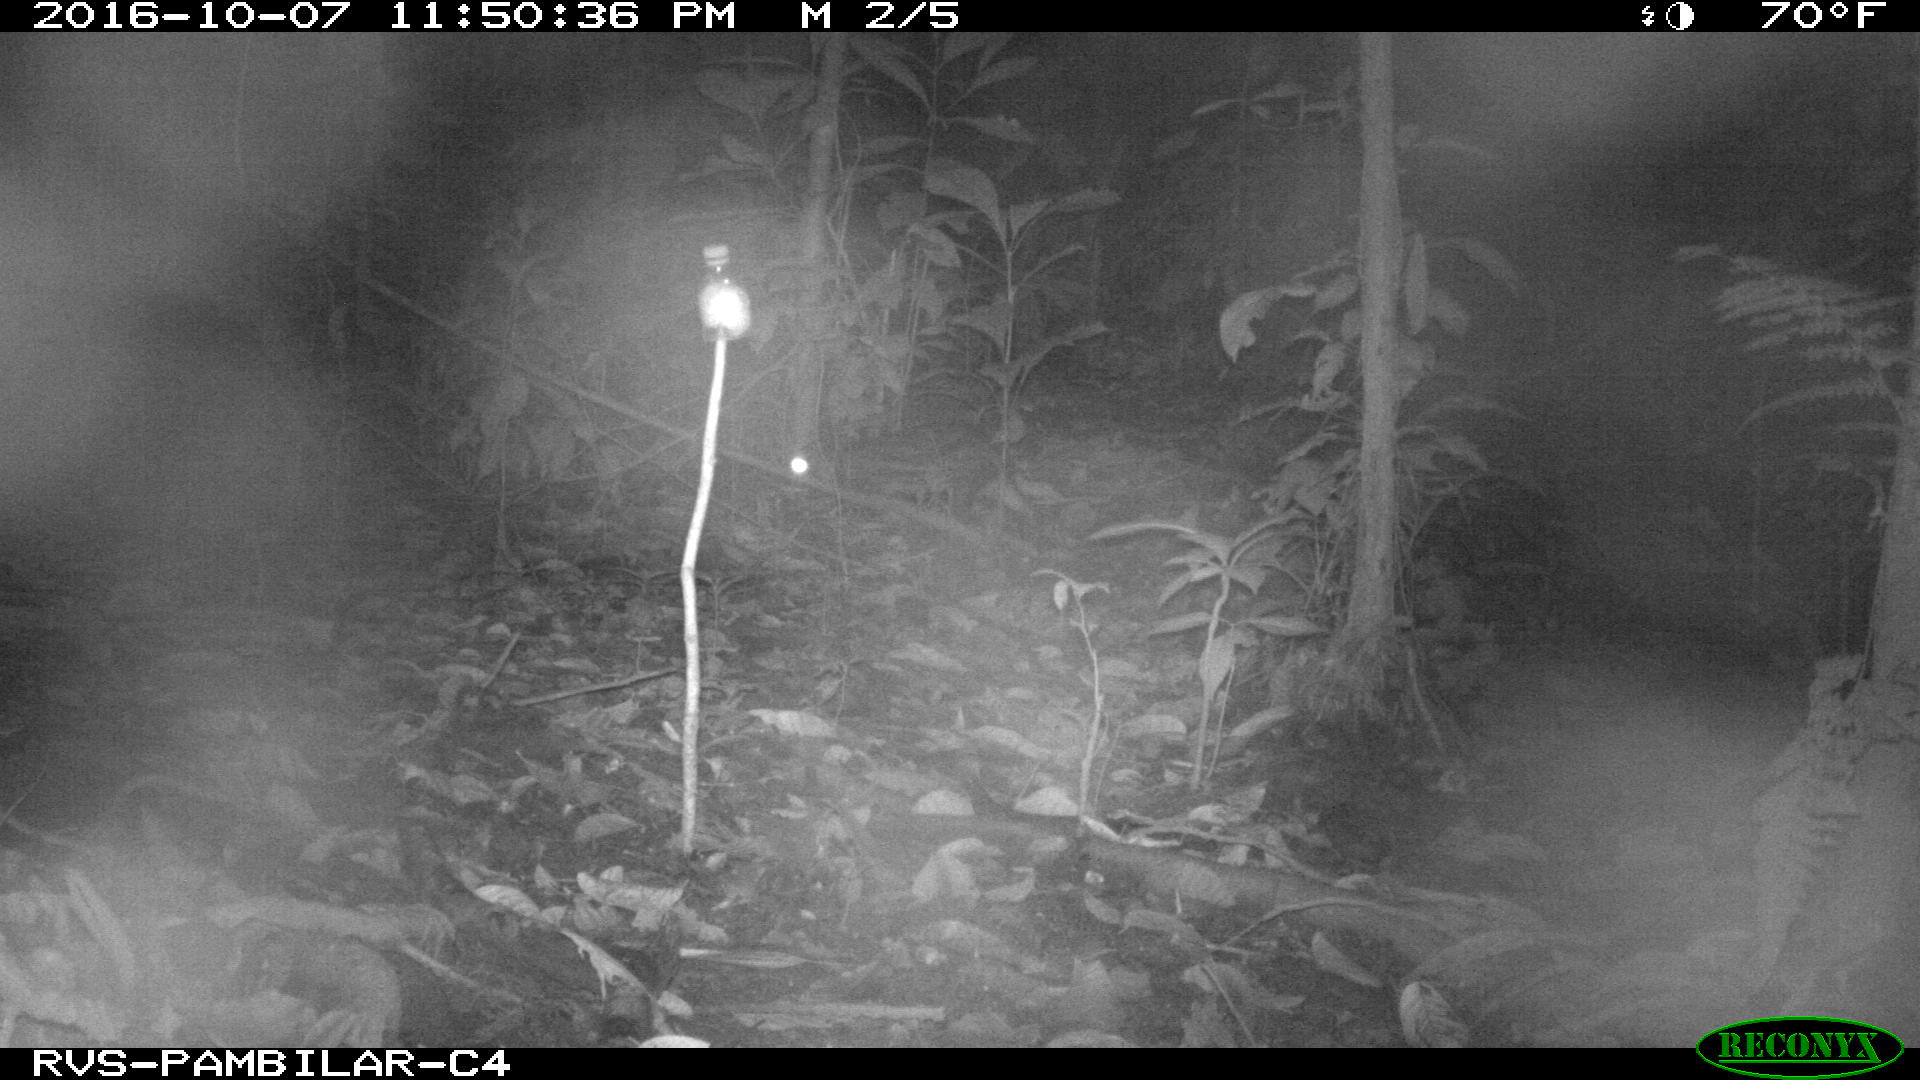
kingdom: Animalia
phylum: Chordata
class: Mammalia
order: Rodentia
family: Cuniculidae
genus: Cuniculus
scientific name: Cuniculus paca
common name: Lowland paca
